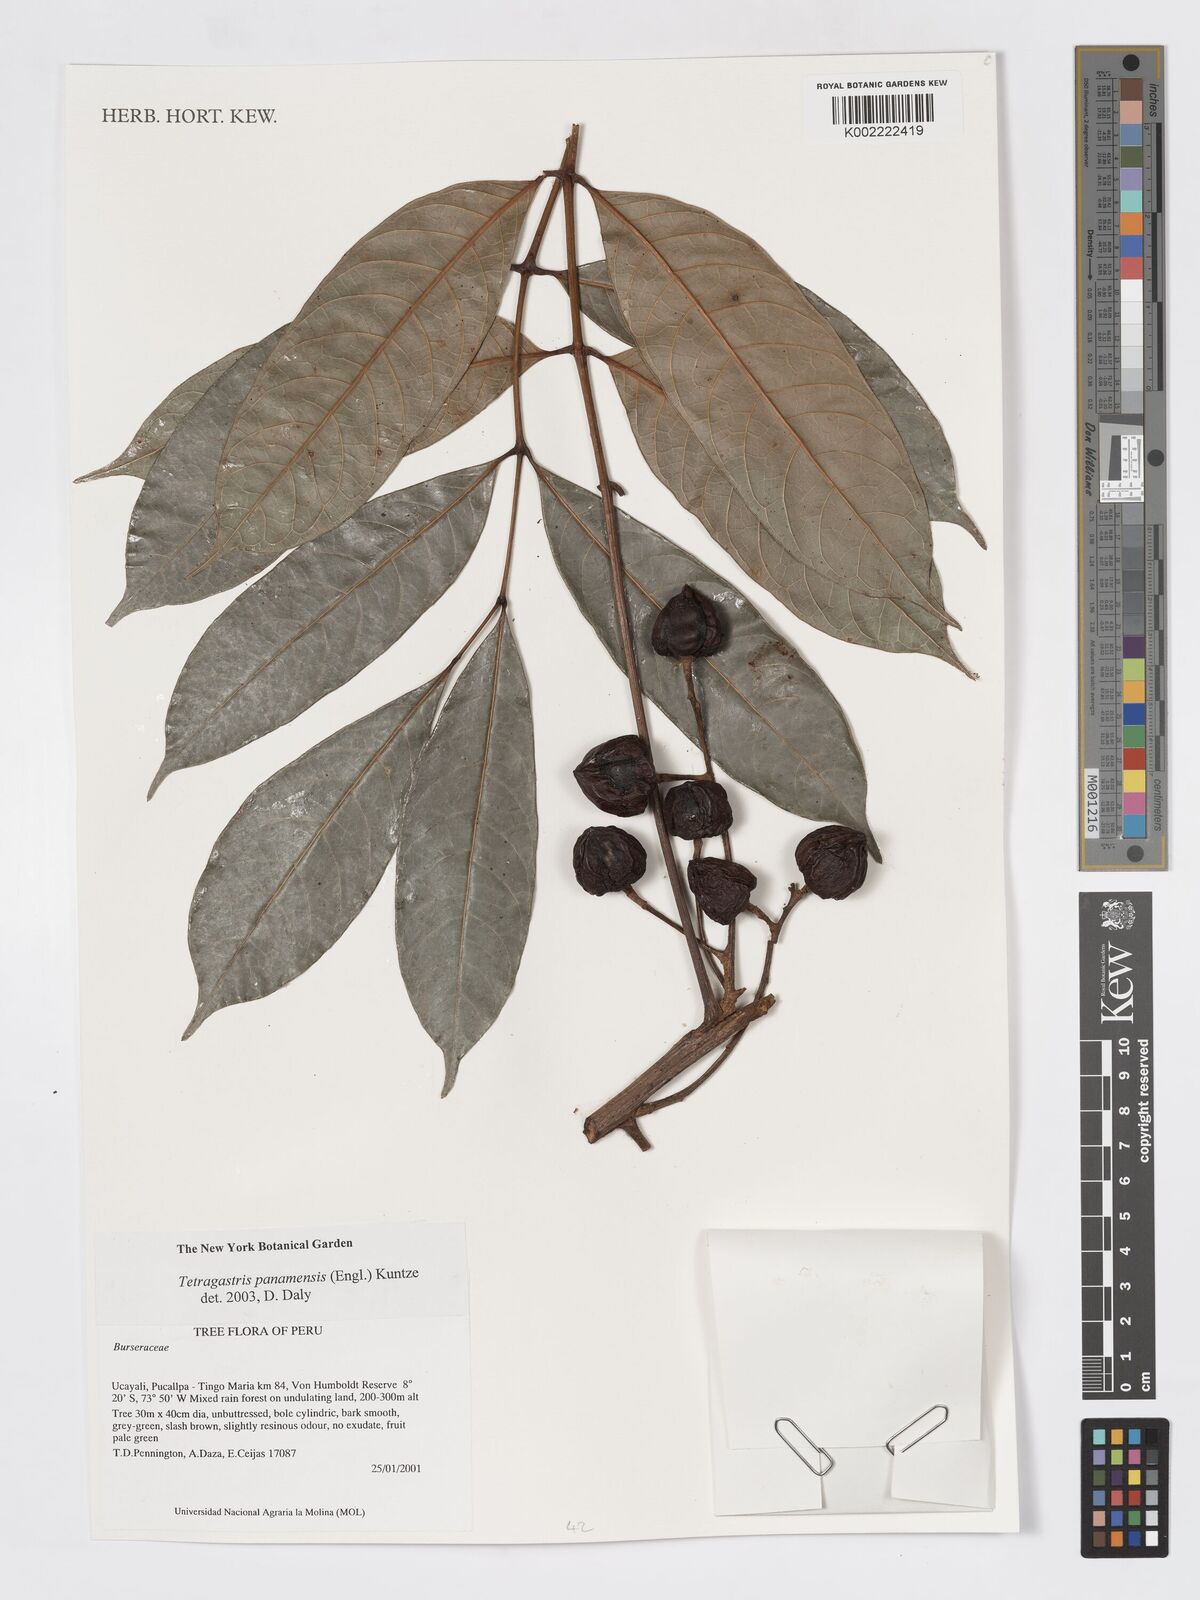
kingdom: Plantae
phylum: Tracheophyta
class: Magnoliopsida
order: Sapindales
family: Burseraceae
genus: Tetragastris
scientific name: Tetragastris panamensis
